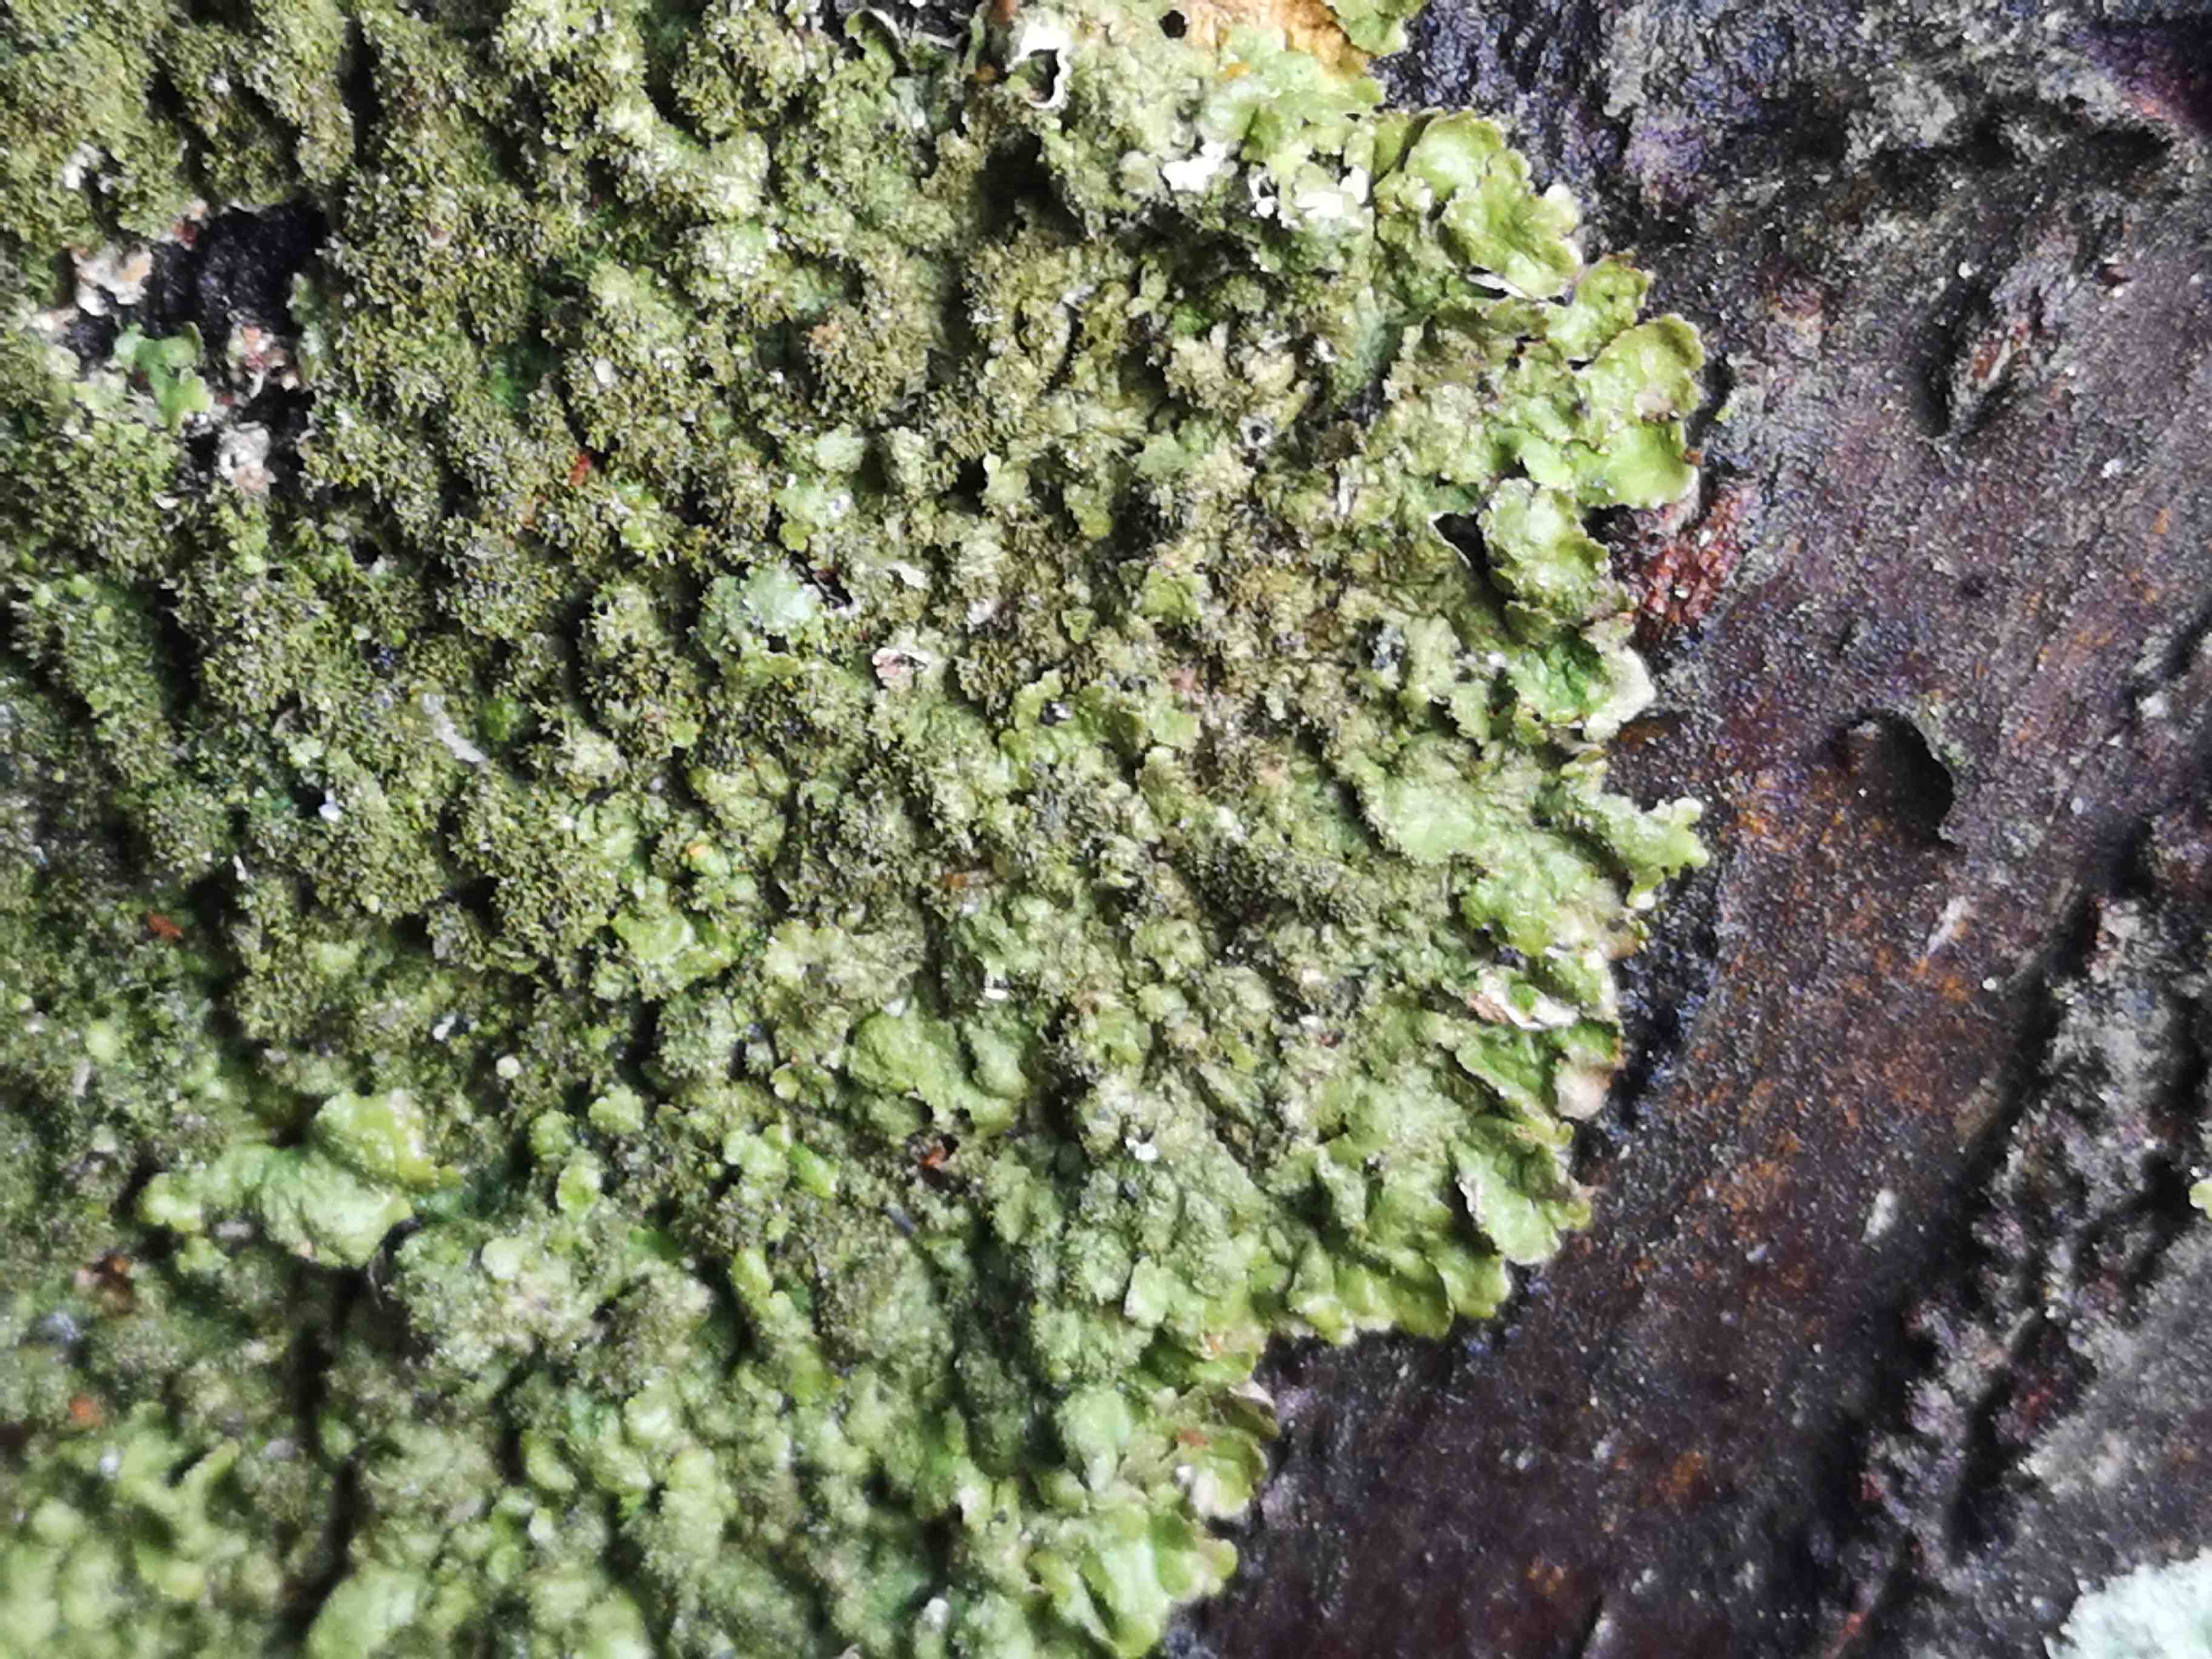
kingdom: Fungi
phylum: Ascomycota
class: Lecanoromycetes
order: Lecanorales
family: Parmeliaceae
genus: Melanelixia
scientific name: Melanelixia glabratula
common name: glinsende skållav
